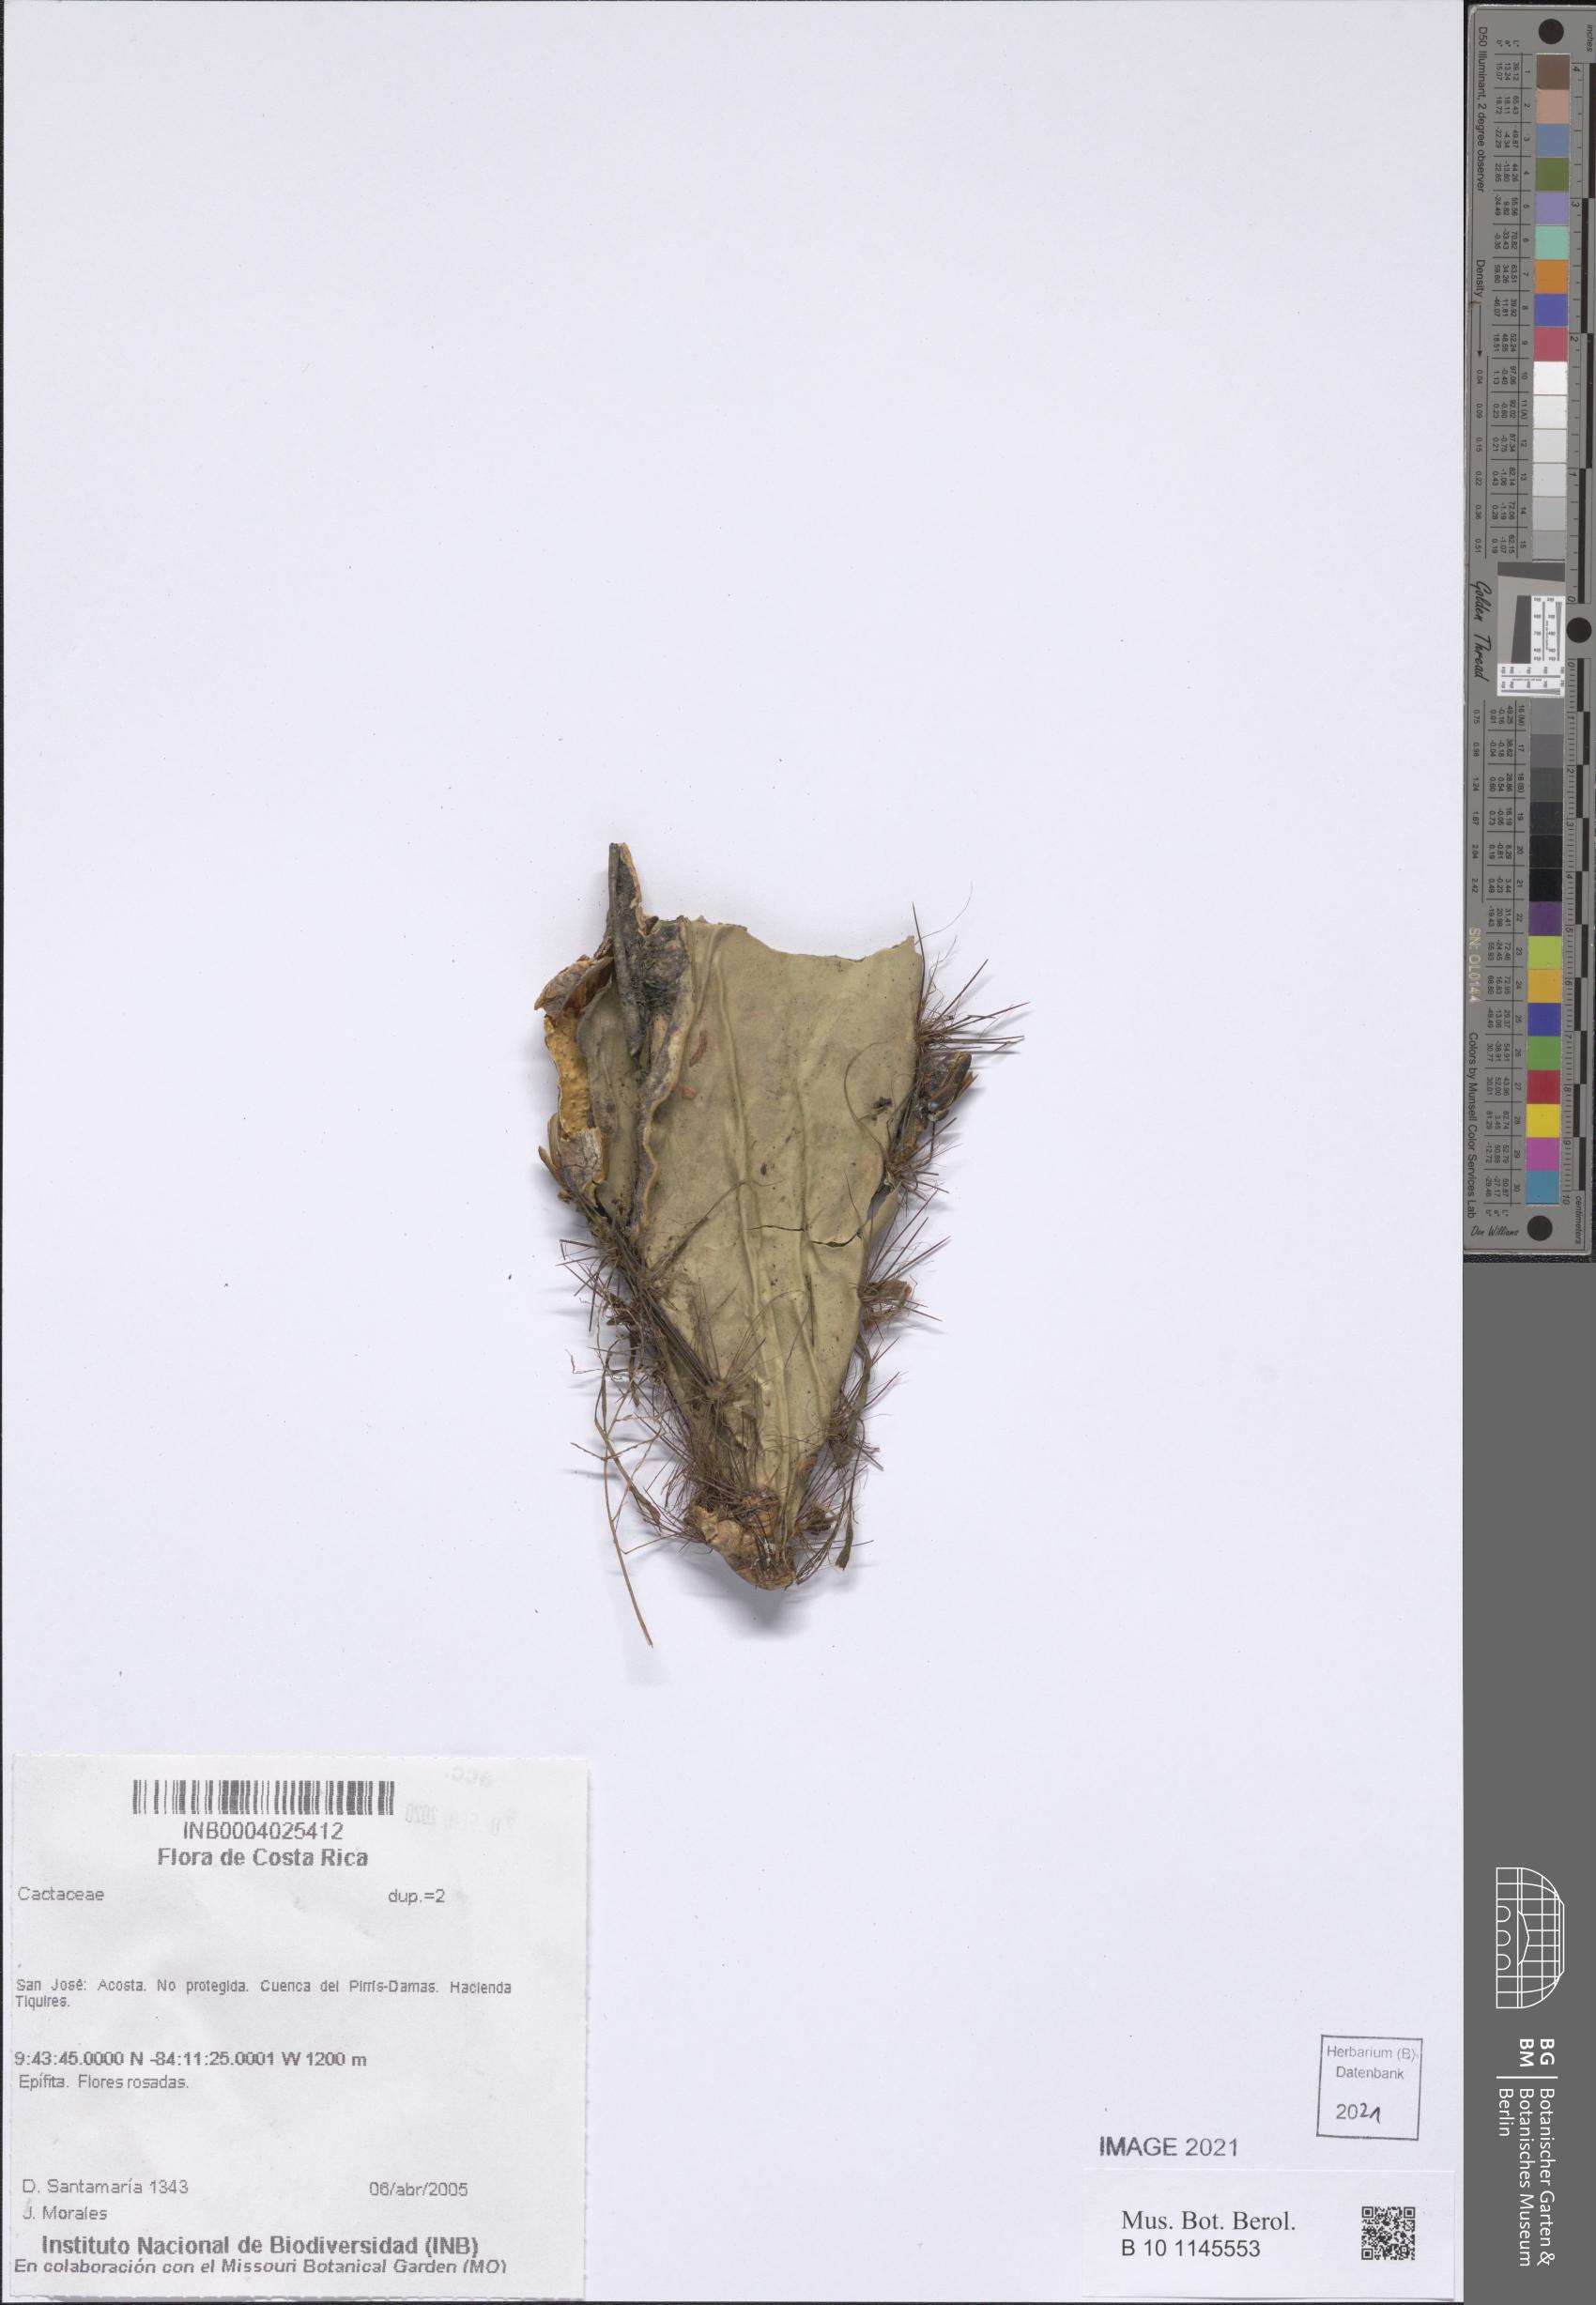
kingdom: Plantae
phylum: Tracheophyta
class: Magnoliopsida
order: Caryophyllales
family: Cactaceae
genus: Weberocereus
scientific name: Weberocereus frohningiorum
